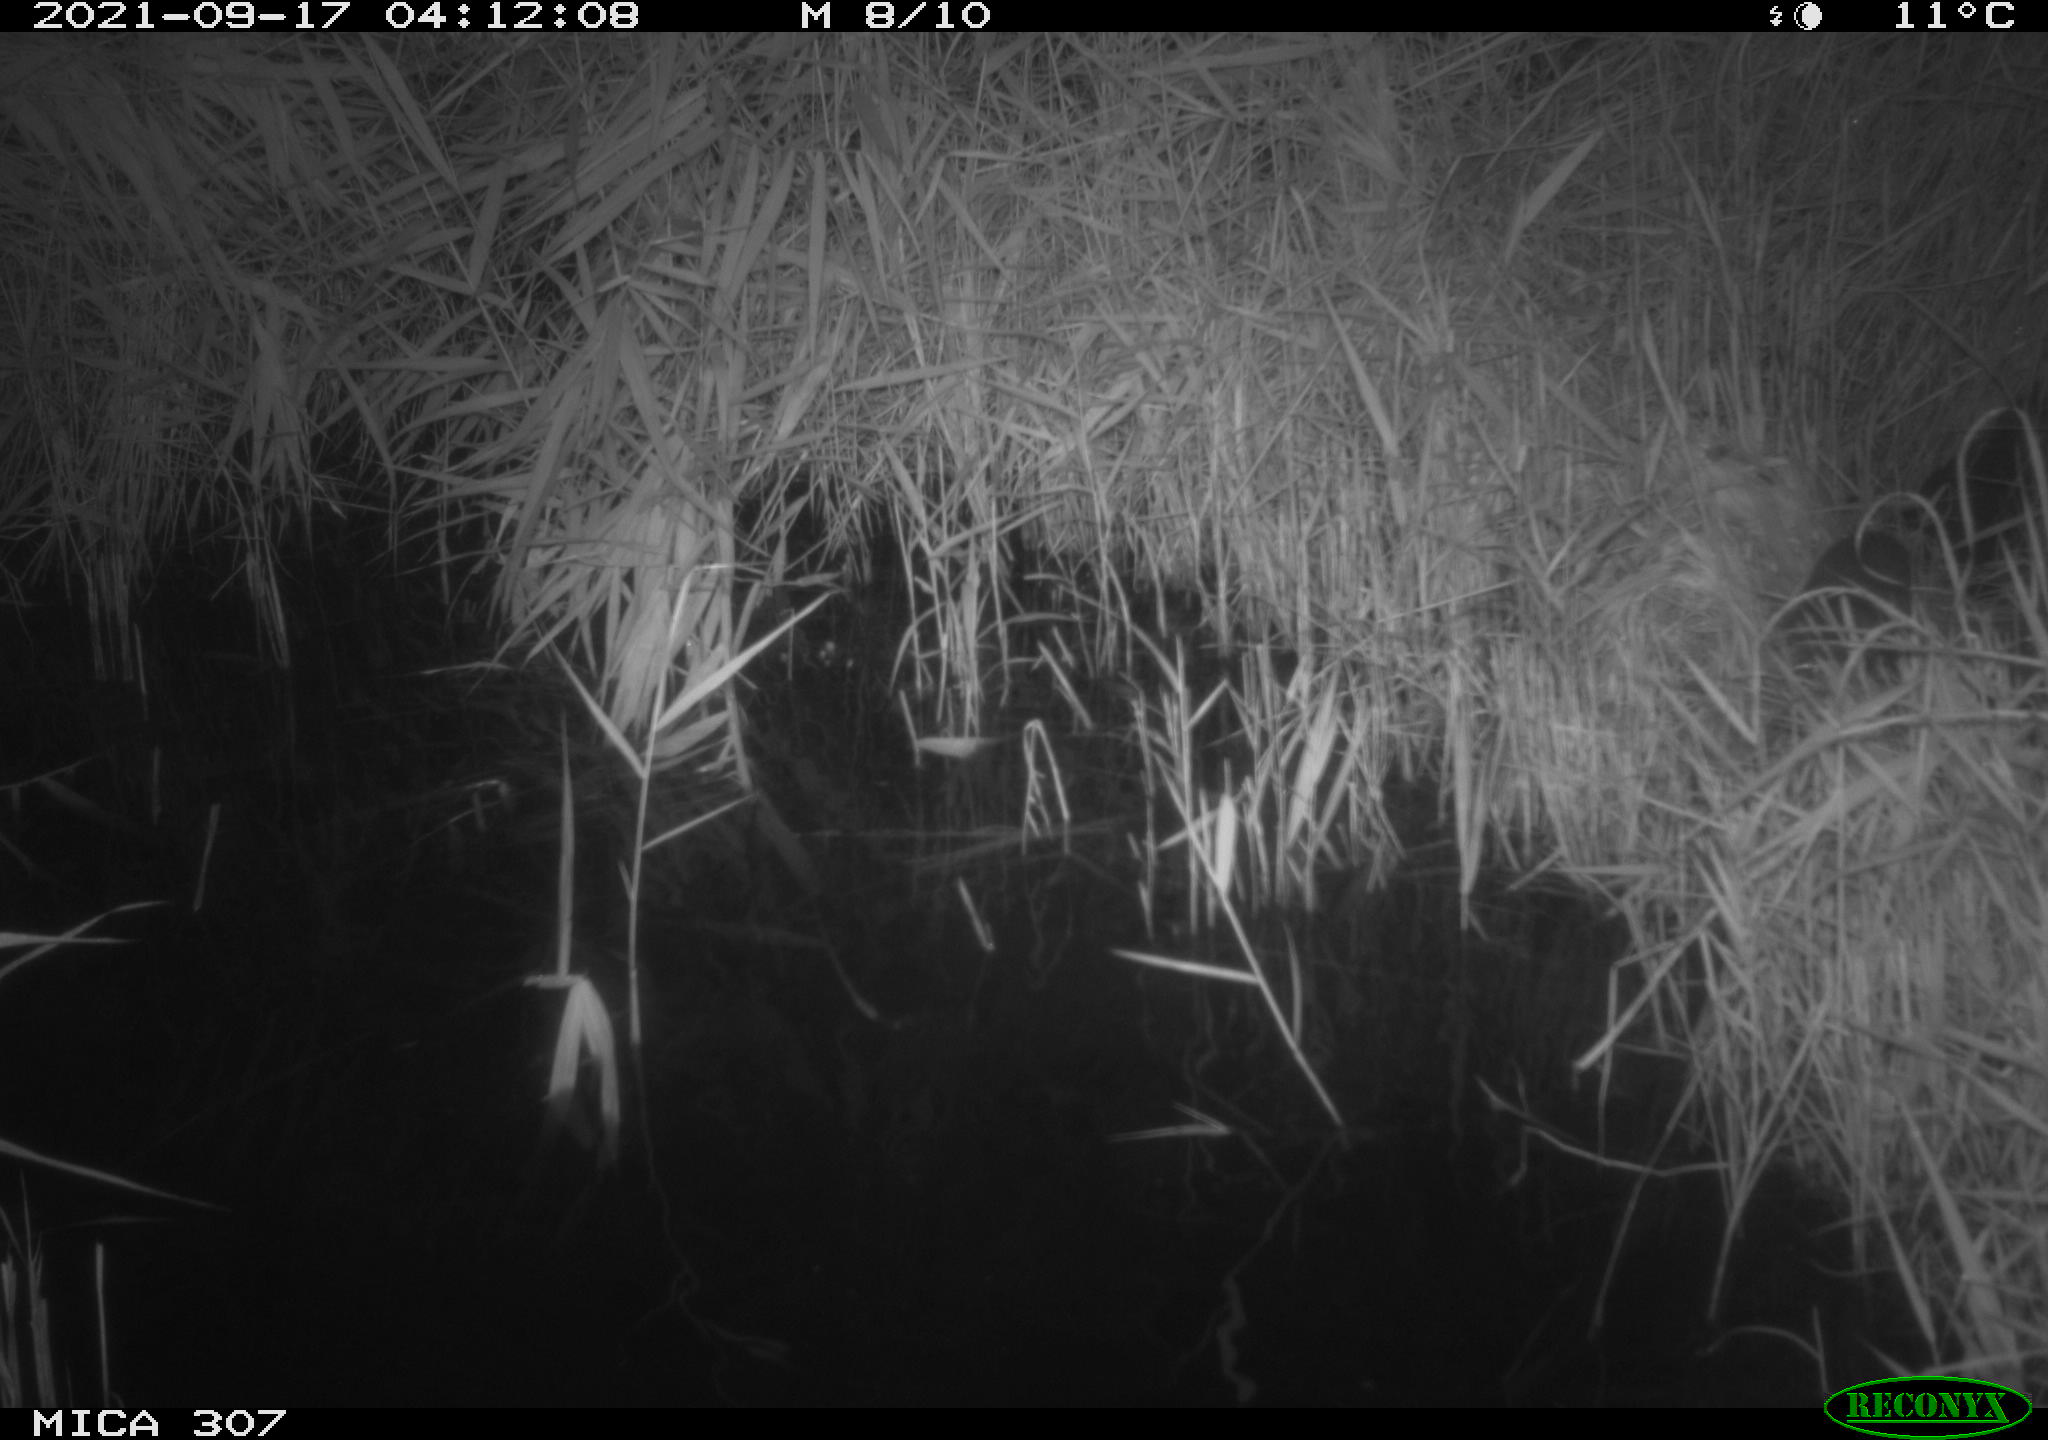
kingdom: Animalia
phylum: Chordata
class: Mammalia
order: Rodentia
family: Muridae
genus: Rattus
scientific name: Rattus norvegicus
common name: Brown rat
